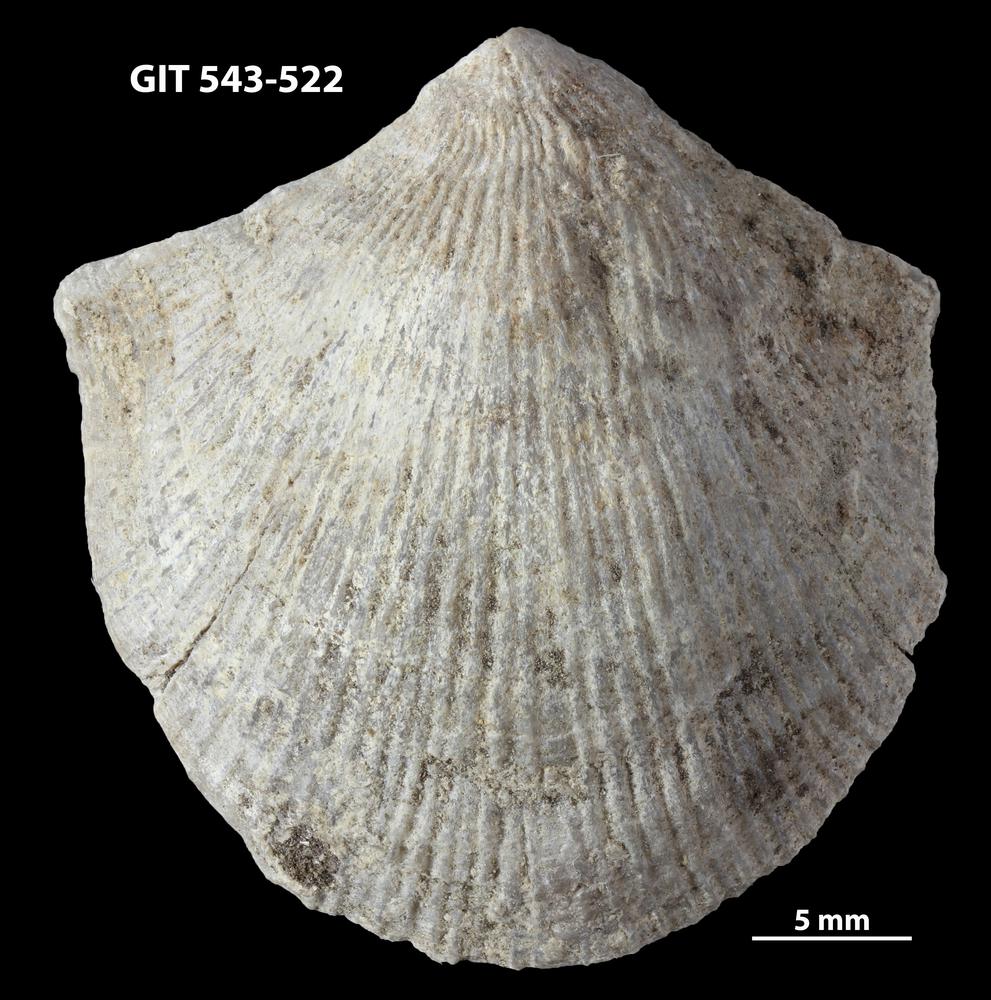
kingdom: Animalia
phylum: Brachiopoda
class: Rhynchonellata
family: Clitambonitidae
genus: Vellamo
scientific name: Vellamo Orthis verneuili
